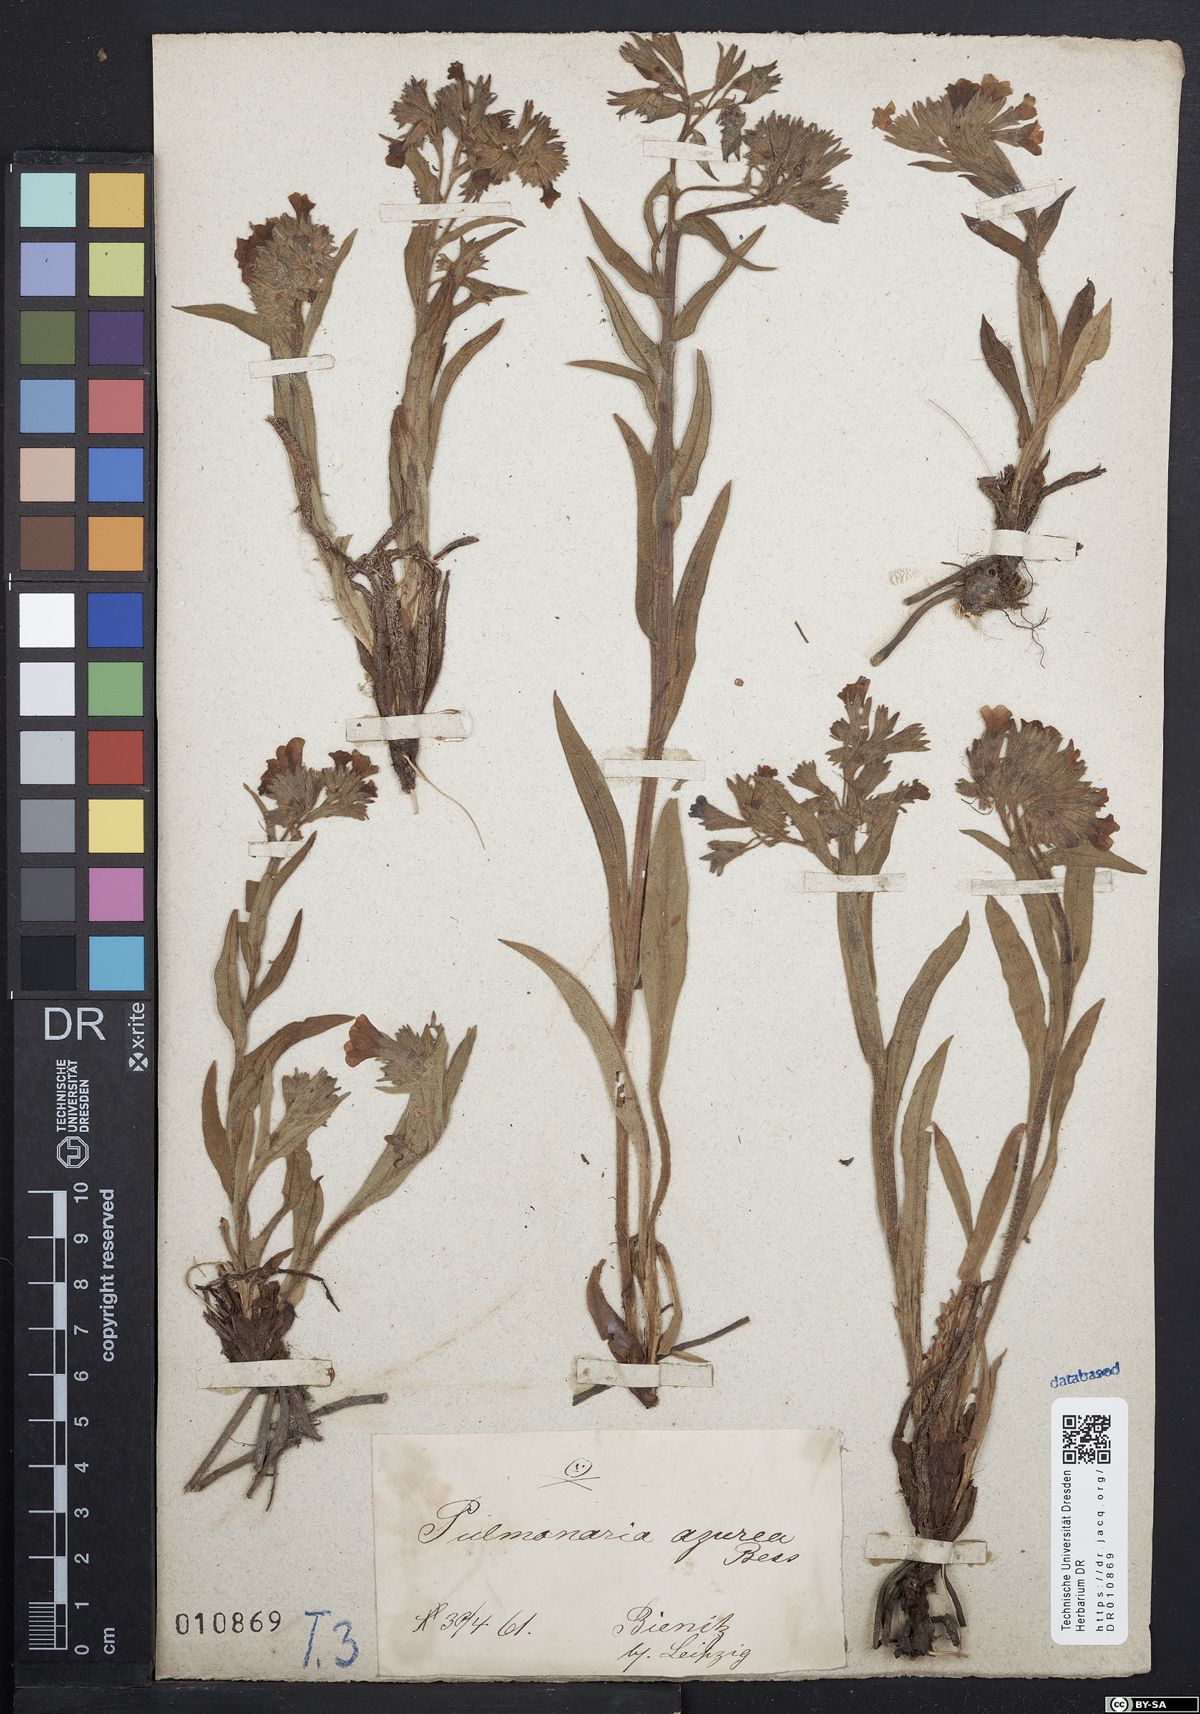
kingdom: Plantae
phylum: Tracheophyta
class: Magnoliopsida
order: Boraginales
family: Boraginaceae
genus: Pulmonaria
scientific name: Pulmonaria angustifolia
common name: Blue cowslip
